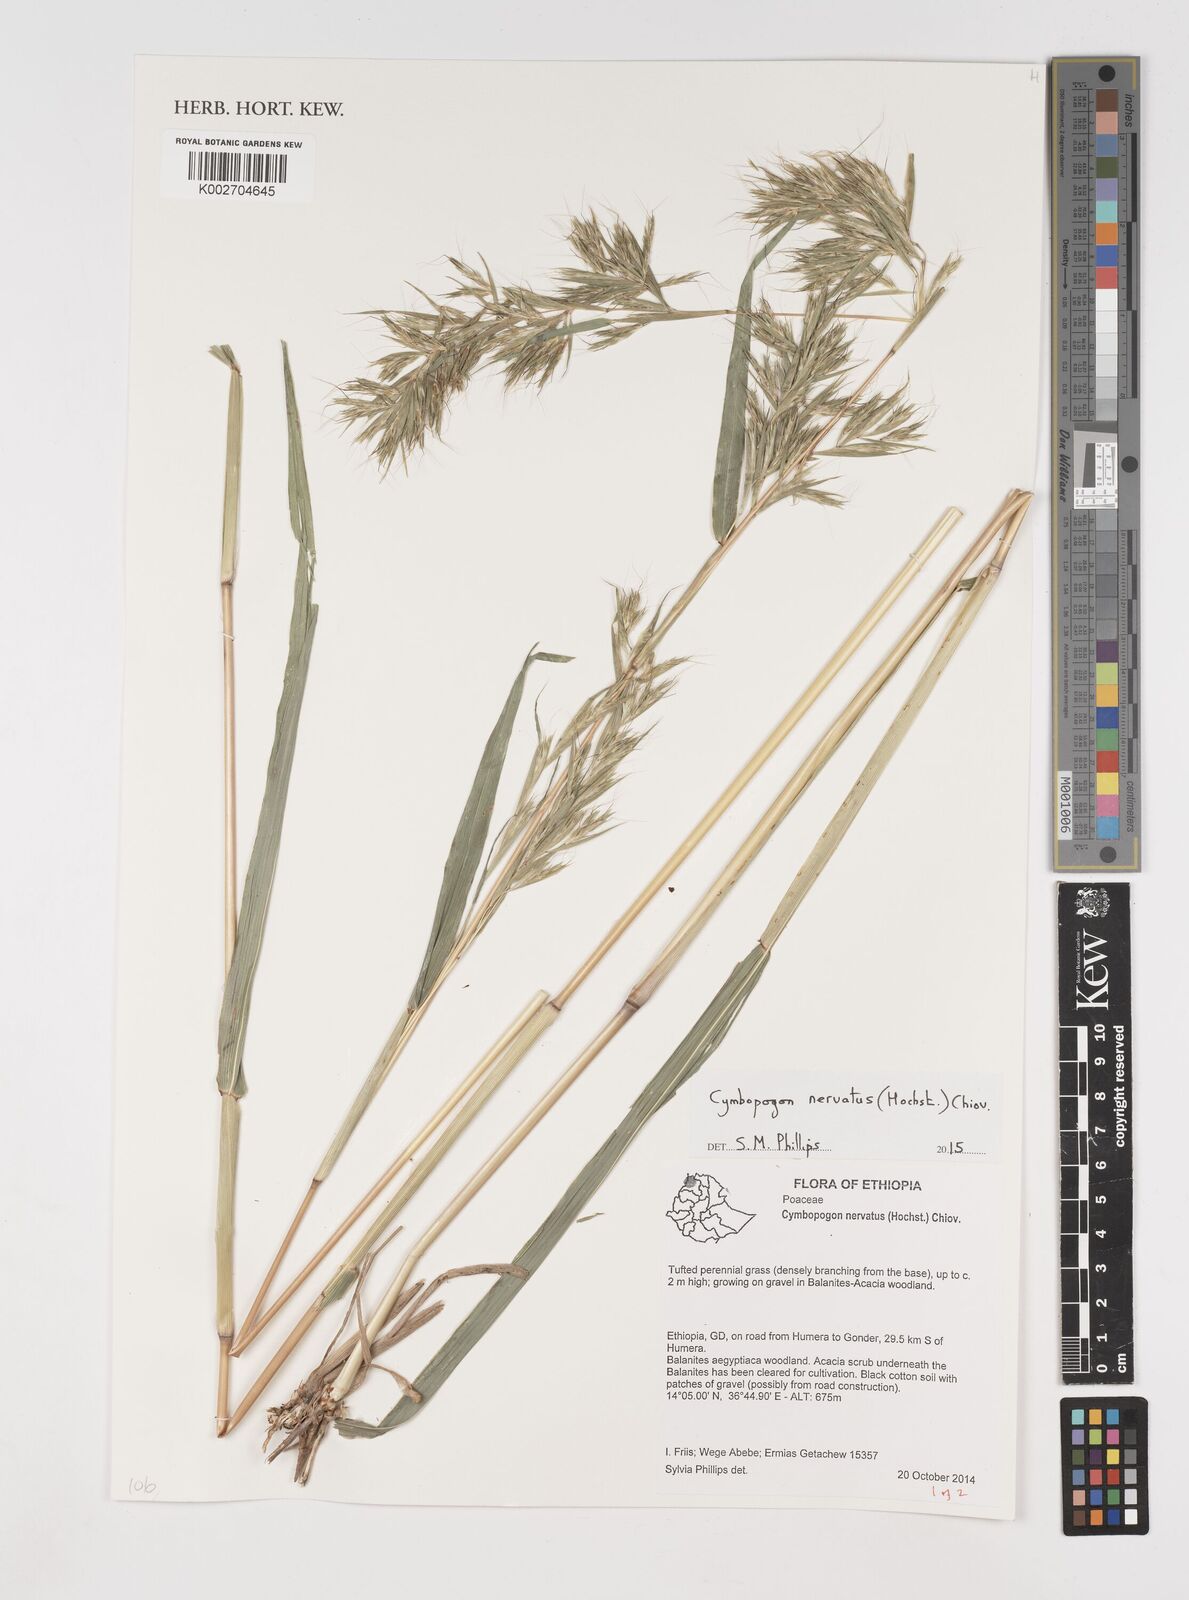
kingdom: Plantae
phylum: Tracheophyta
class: Liliopsida
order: Poales
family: Poaceae
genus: Cymbopogon
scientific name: Cymbopogon nervatus
